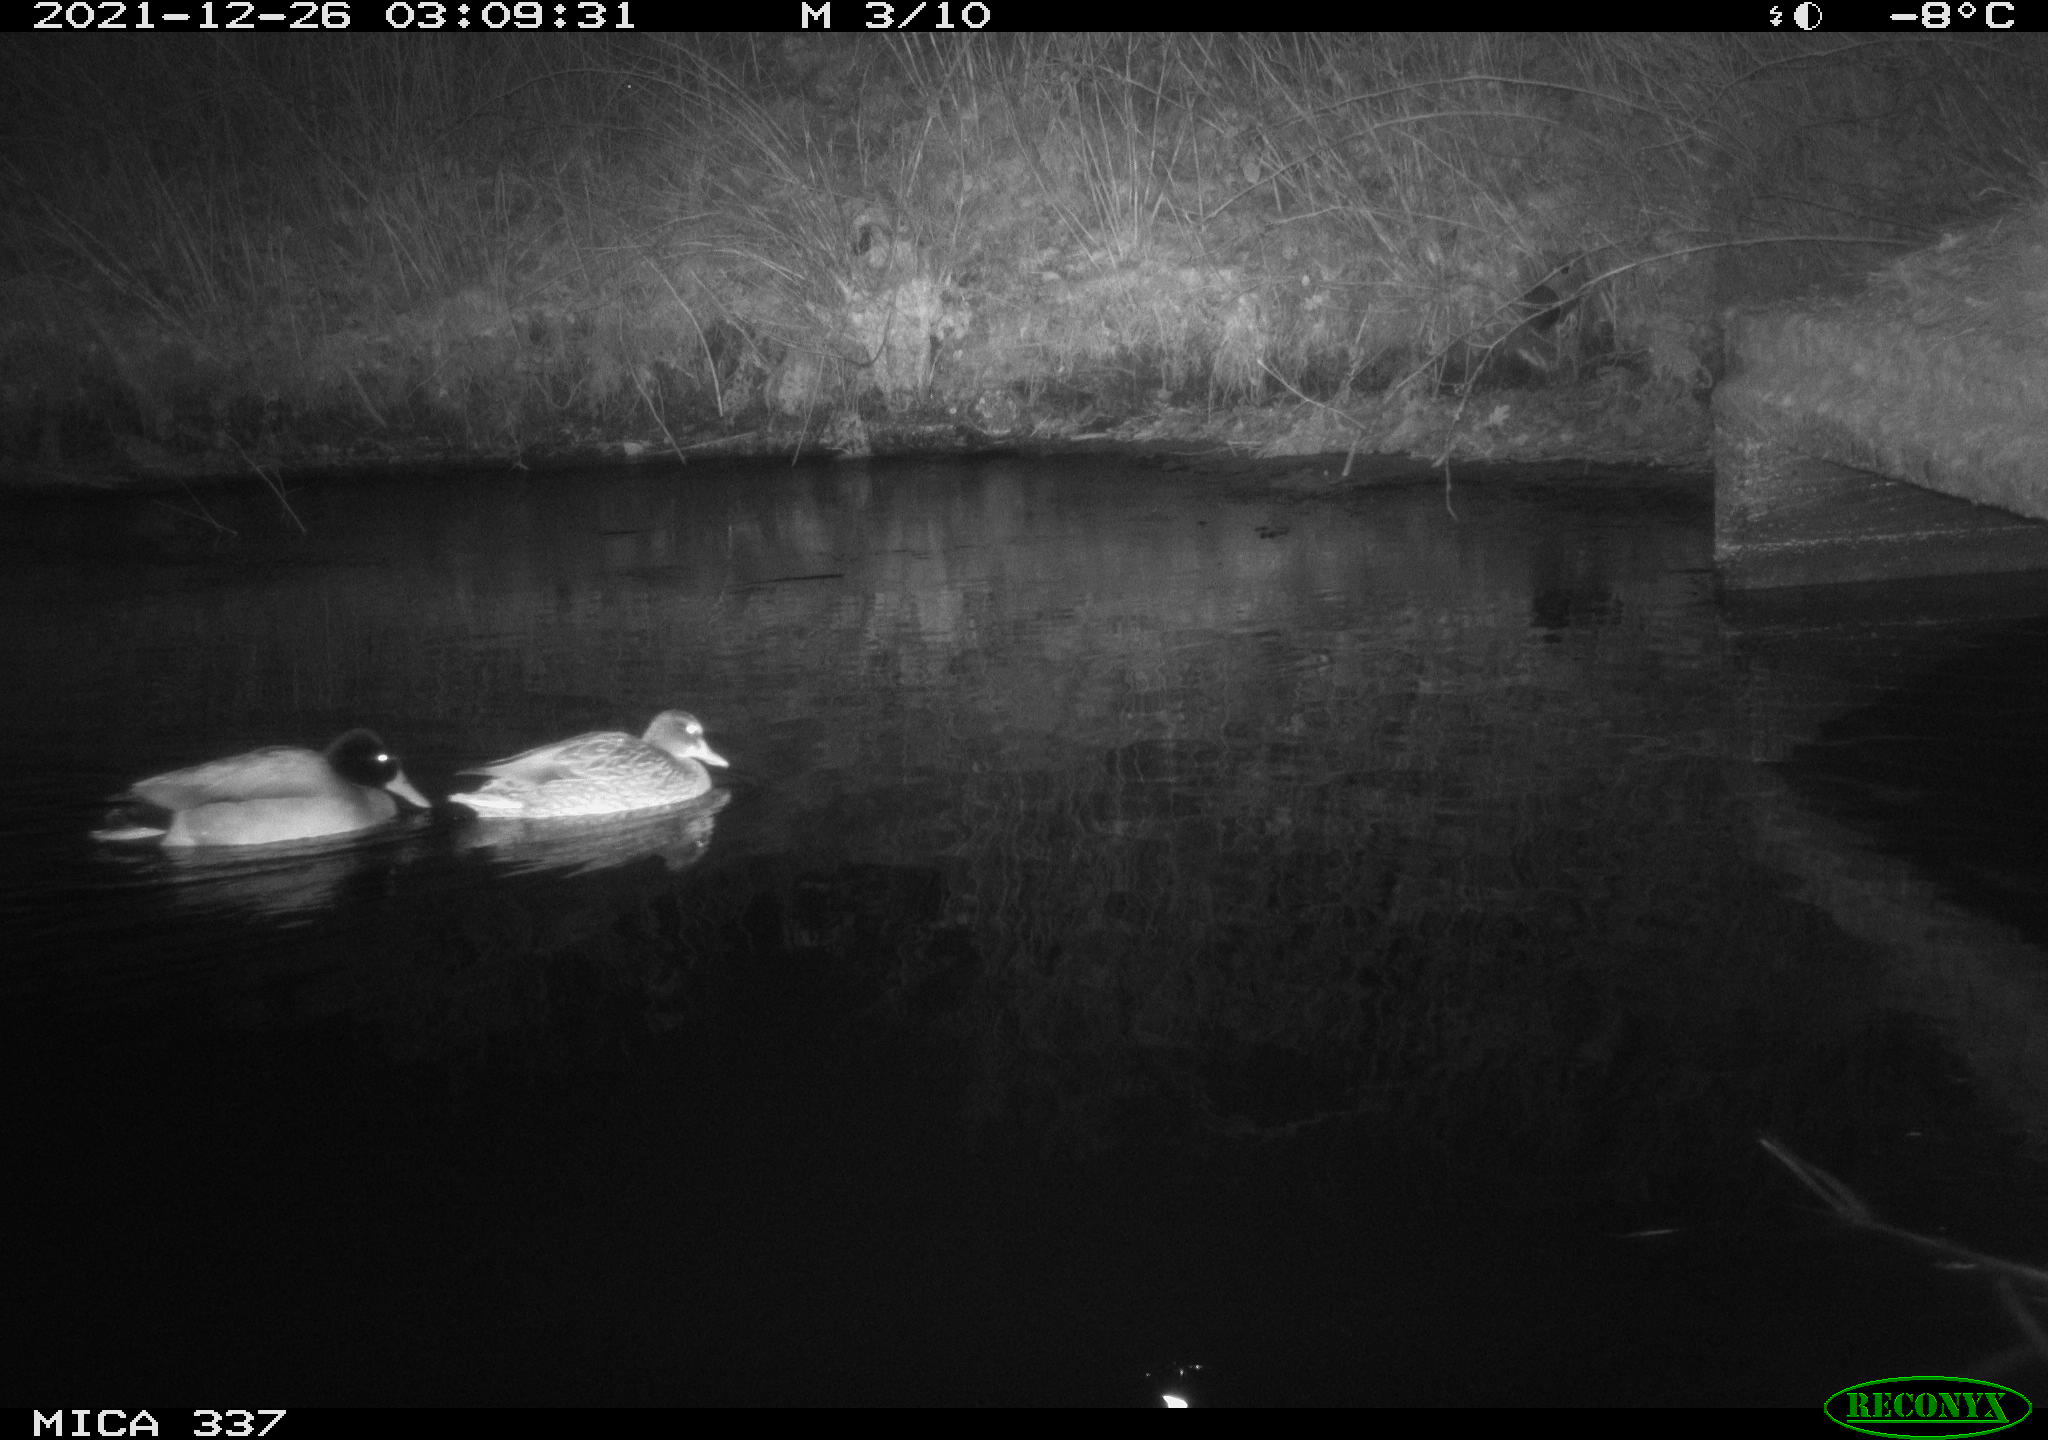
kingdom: Animalia
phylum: Chordata
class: Aves
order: Anseriformes
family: Anatidae
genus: Anas
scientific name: Anas platyrhynchos
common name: Mallard
